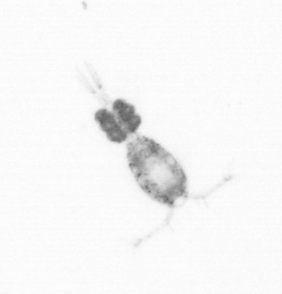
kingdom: Animalia
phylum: Arthropoda
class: Copepoda
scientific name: Copepoda
